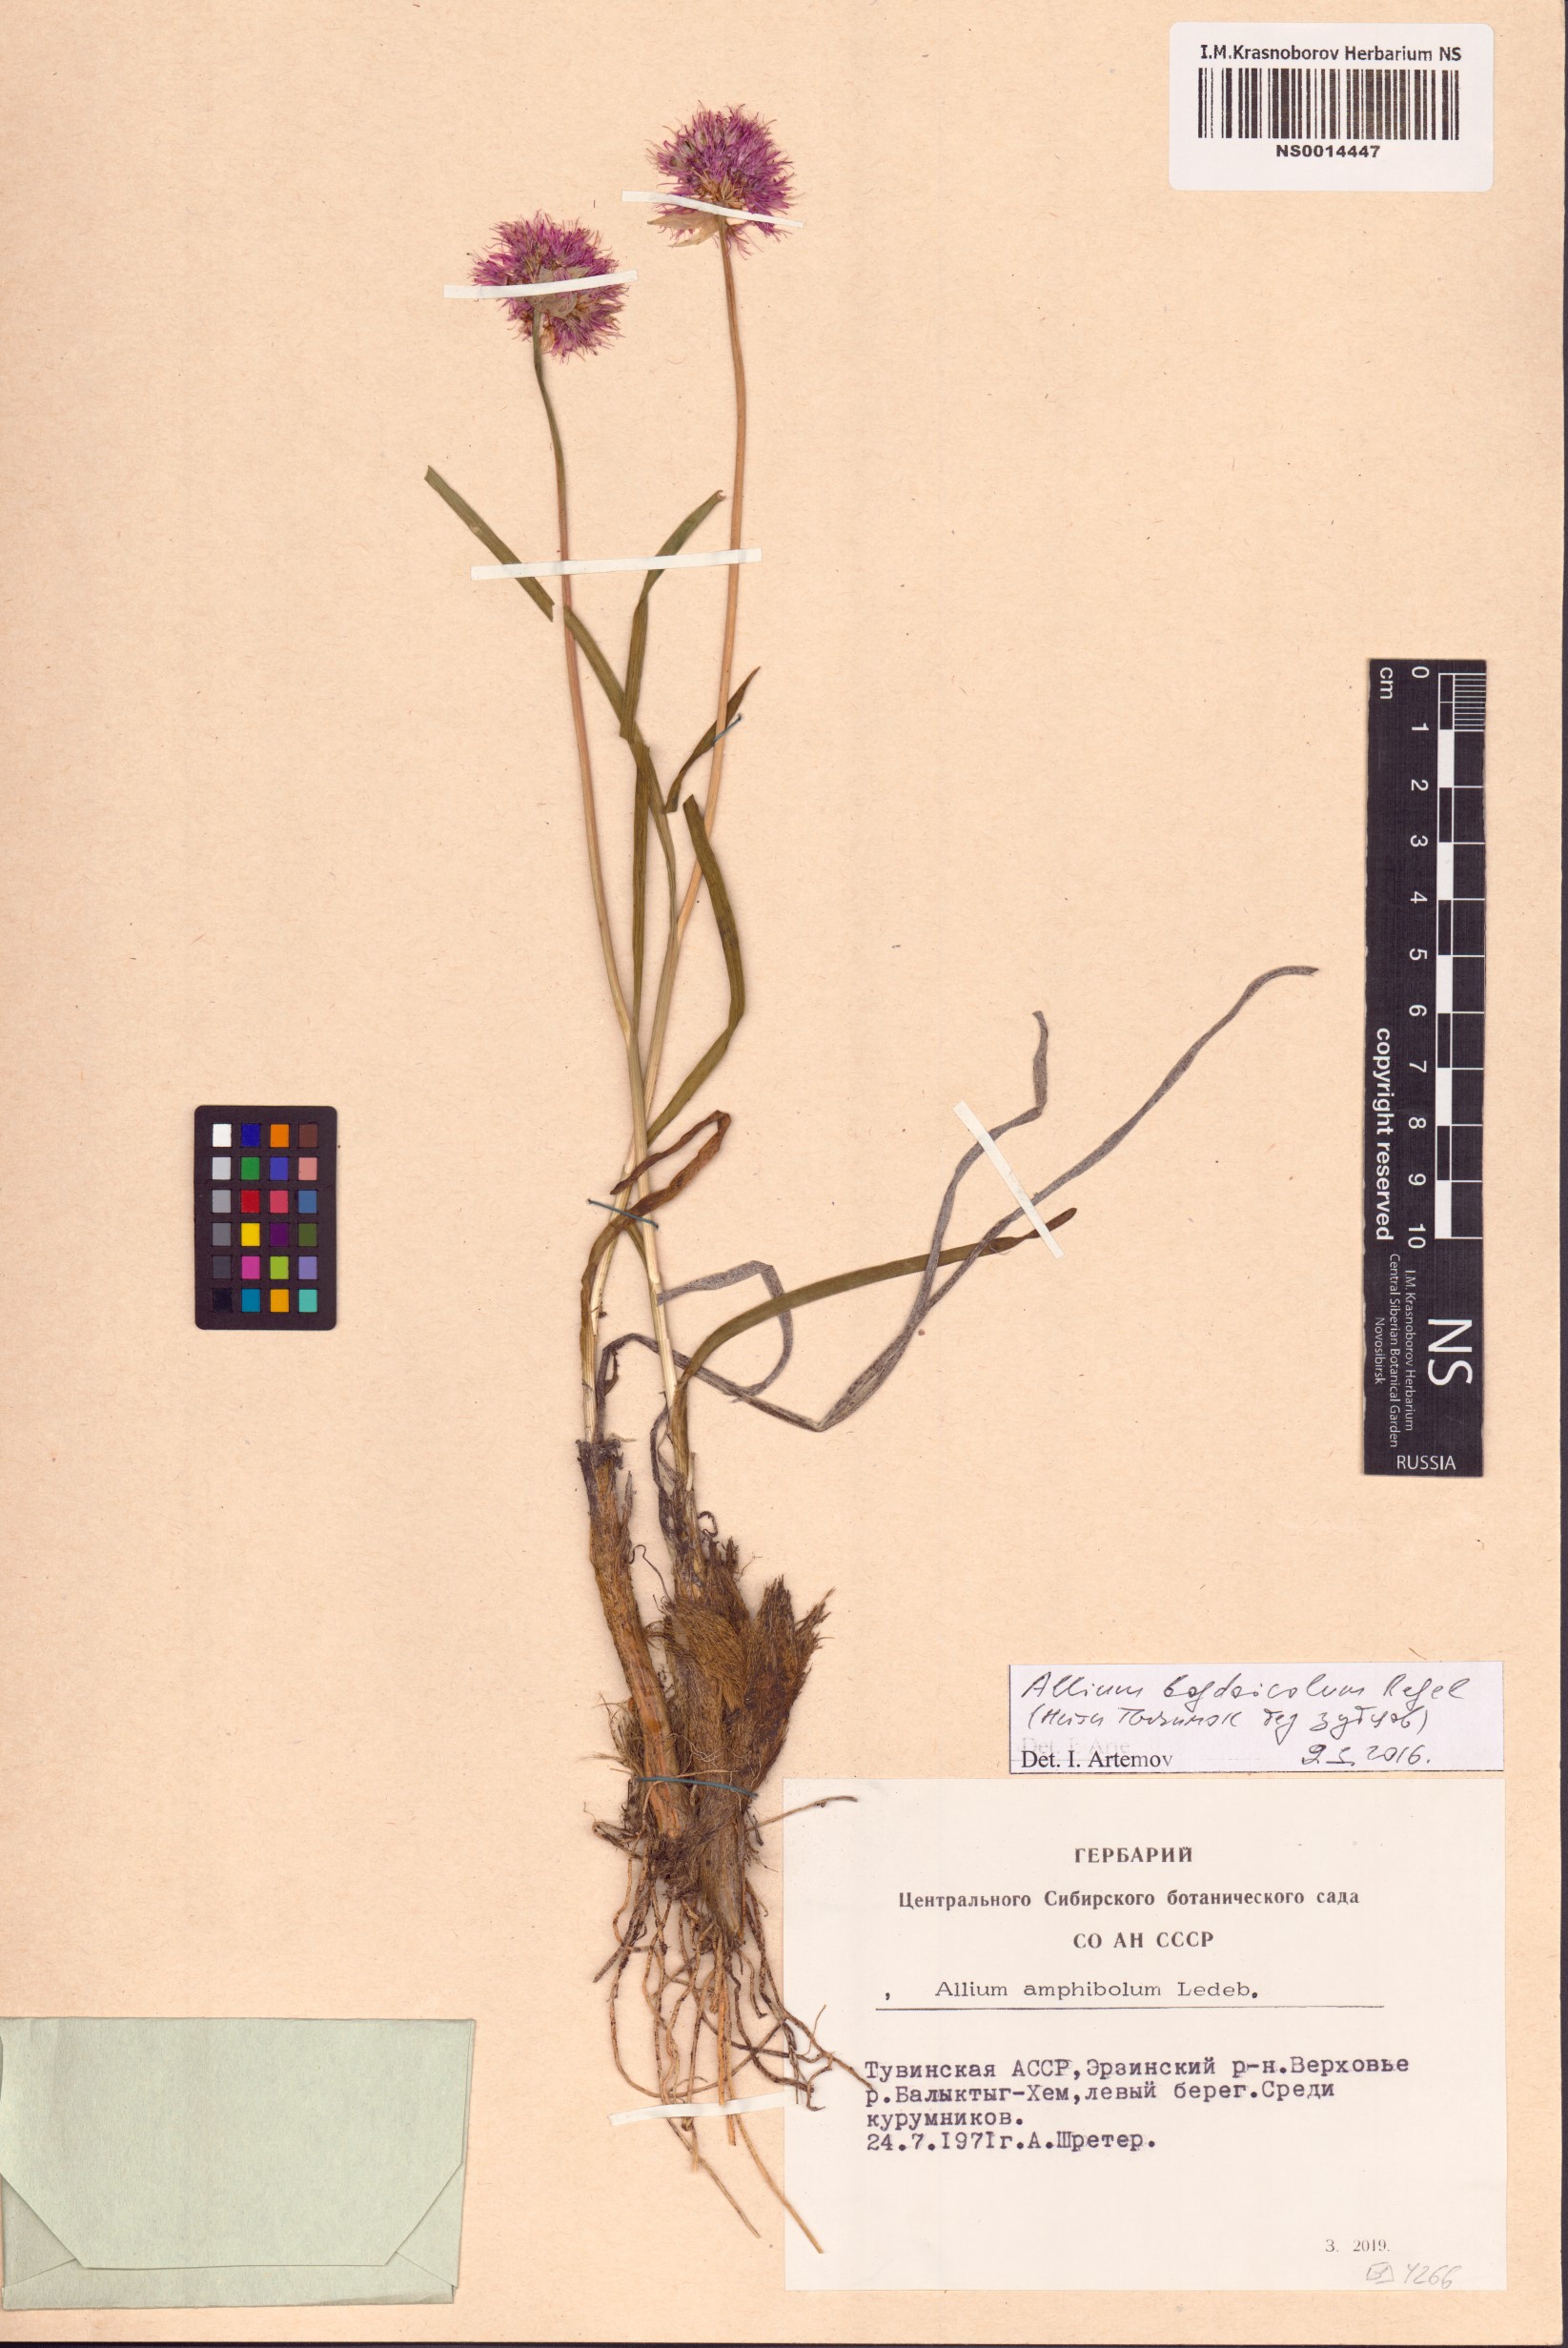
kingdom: Plantae
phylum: Tracheophyta
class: Liliopsida
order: Asparagales
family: Amaryllidaceae
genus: Allium
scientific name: Allium schrenkii
